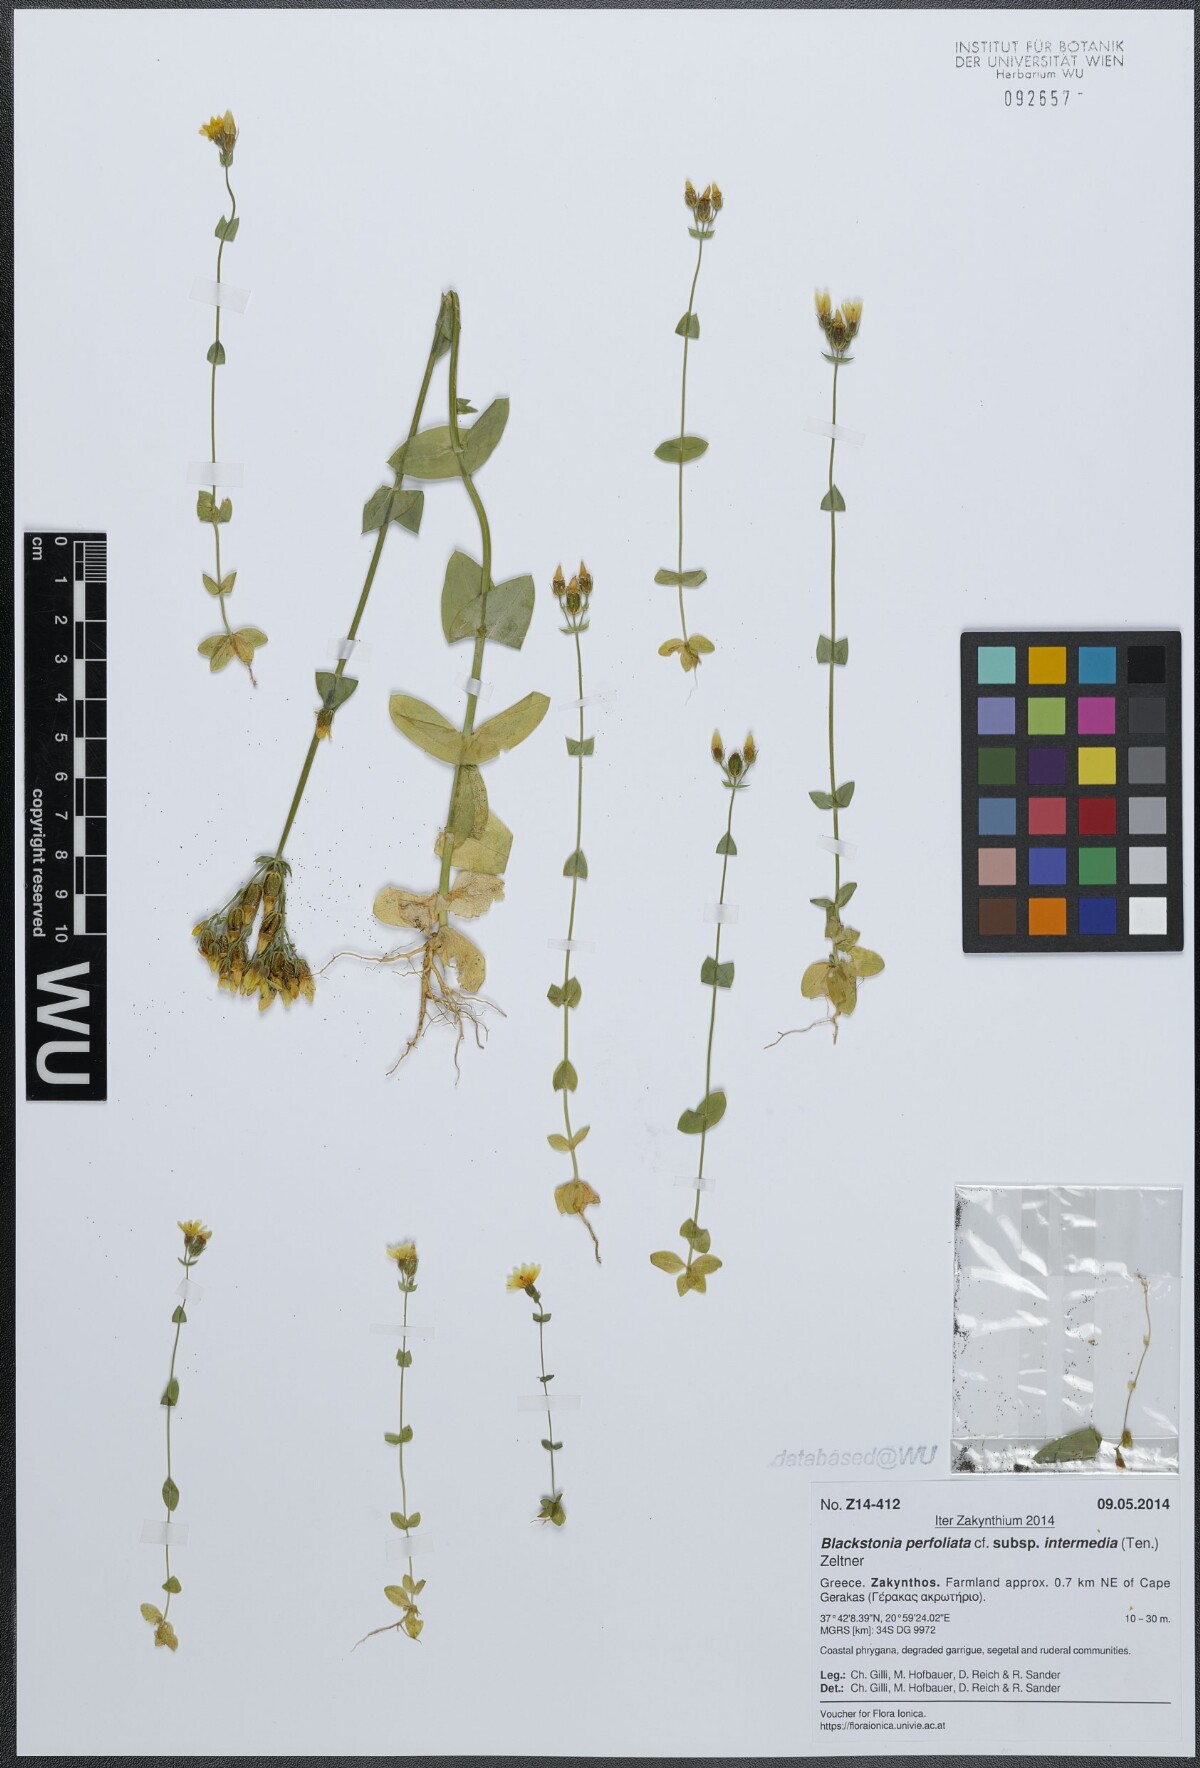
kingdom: Plantae
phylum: Tracheophyta
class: Magnoliopsida
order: Gentianales
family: Gentianaceae
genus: Blackstonia
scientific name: Blackstonia perfoliata
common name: Yellow-wort
